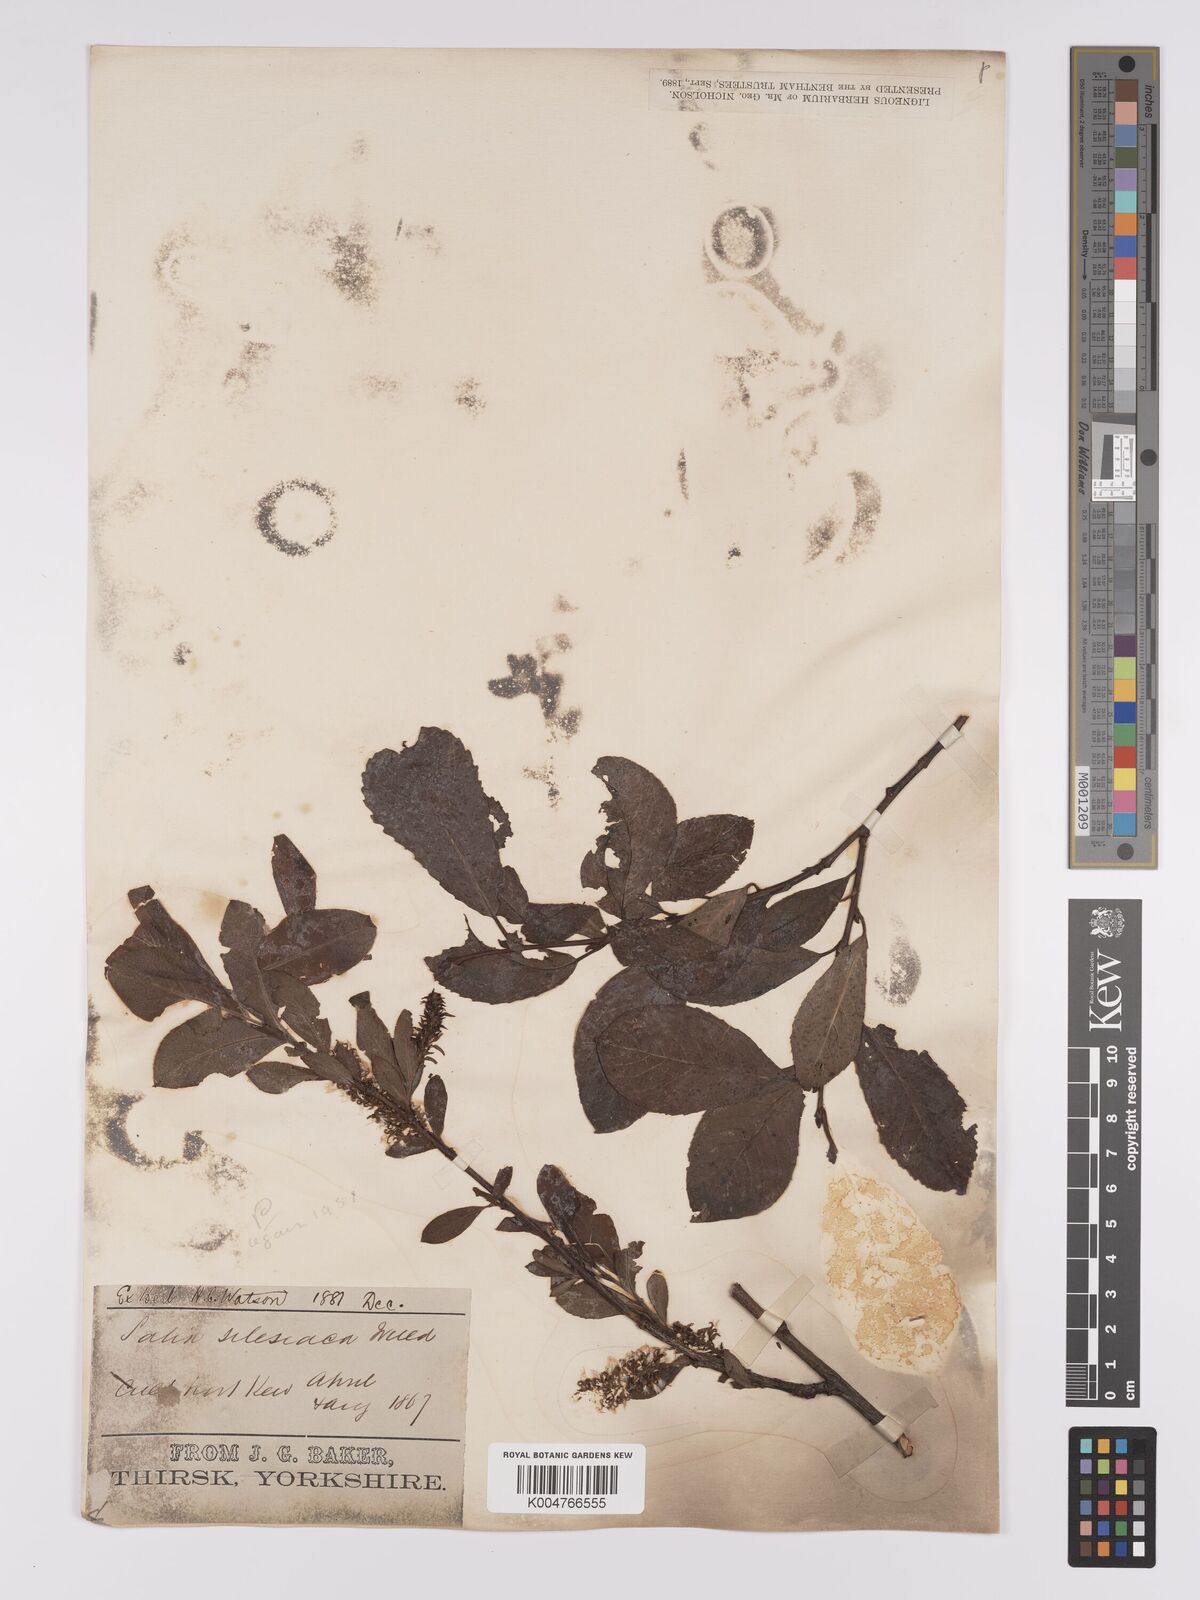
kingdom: Plantae
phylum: Tracheophyta
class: Magnoliopsida
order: Malpighiales
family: Salicaceae
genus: Salix
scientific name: Salix
